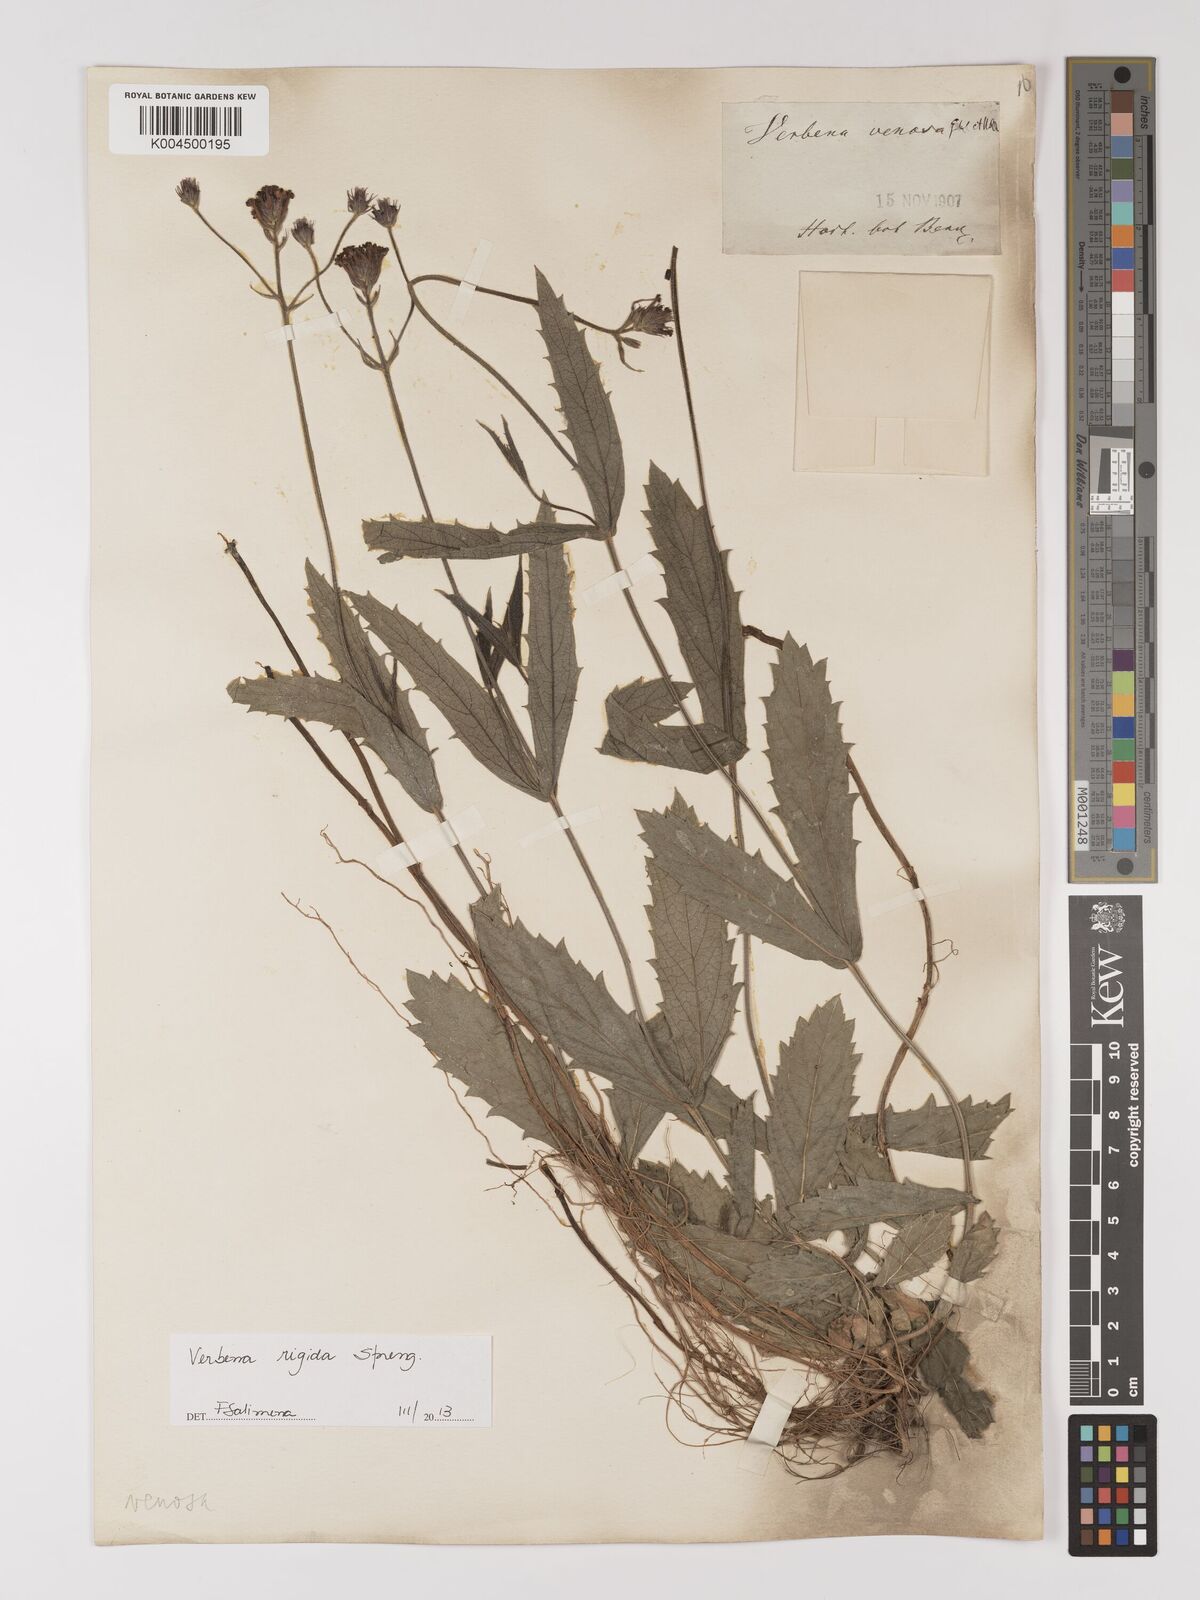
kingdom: Plantae
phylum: Tracheophyta
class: Magnoliopsida
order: Lamiales
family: Verbenaceae
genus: Verbena
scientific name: Verbena rigida
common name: Slender vervain
